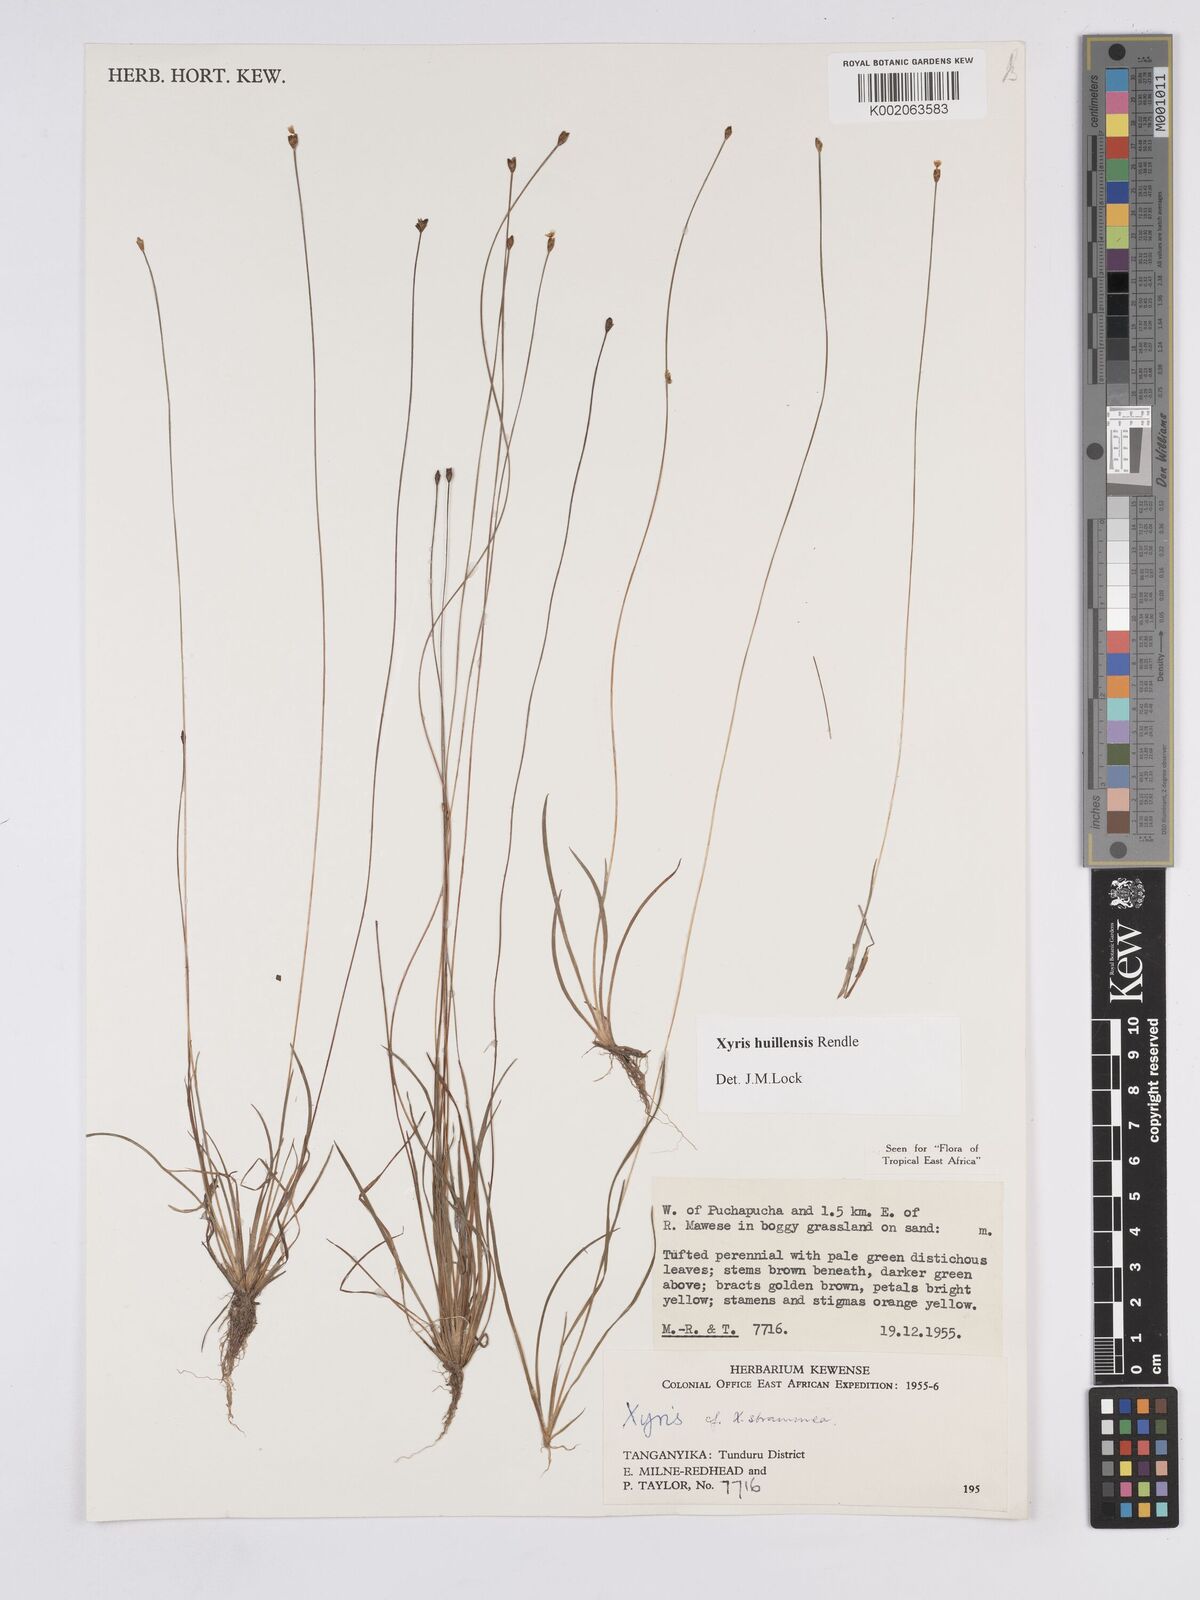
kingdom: Plantae
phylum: Tracheophyta
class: Liliopsida
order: Poales
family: Xyridaceae
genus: Xyris
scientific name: Xyris huillensis
